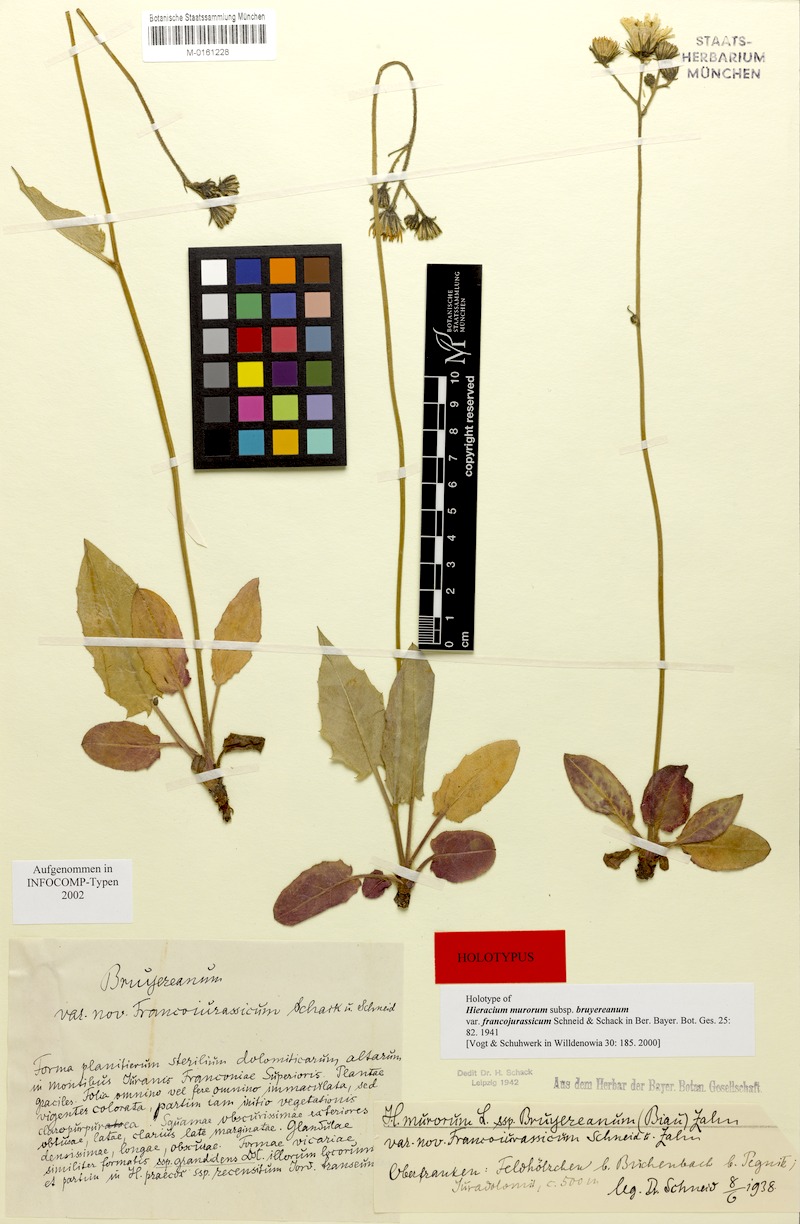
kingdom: Plantae
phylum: Tracheophyta
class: Magnoliopsida
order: Asterales
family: Asteraceae
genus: Hieracium
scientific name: Hieracium murorum
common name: Wall hawkweed
